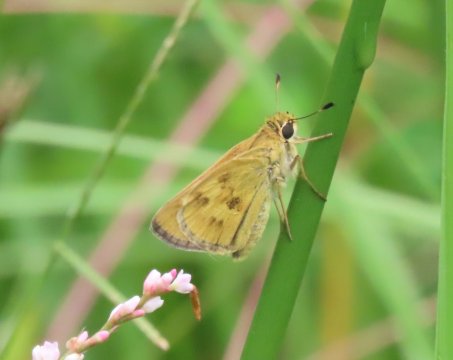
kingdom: Animalia
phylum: Arthropoda
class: Insecta
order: Lepidoptera
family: Hesperiidae
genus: Polites
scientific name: Polites vibex
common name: Whirlabout
